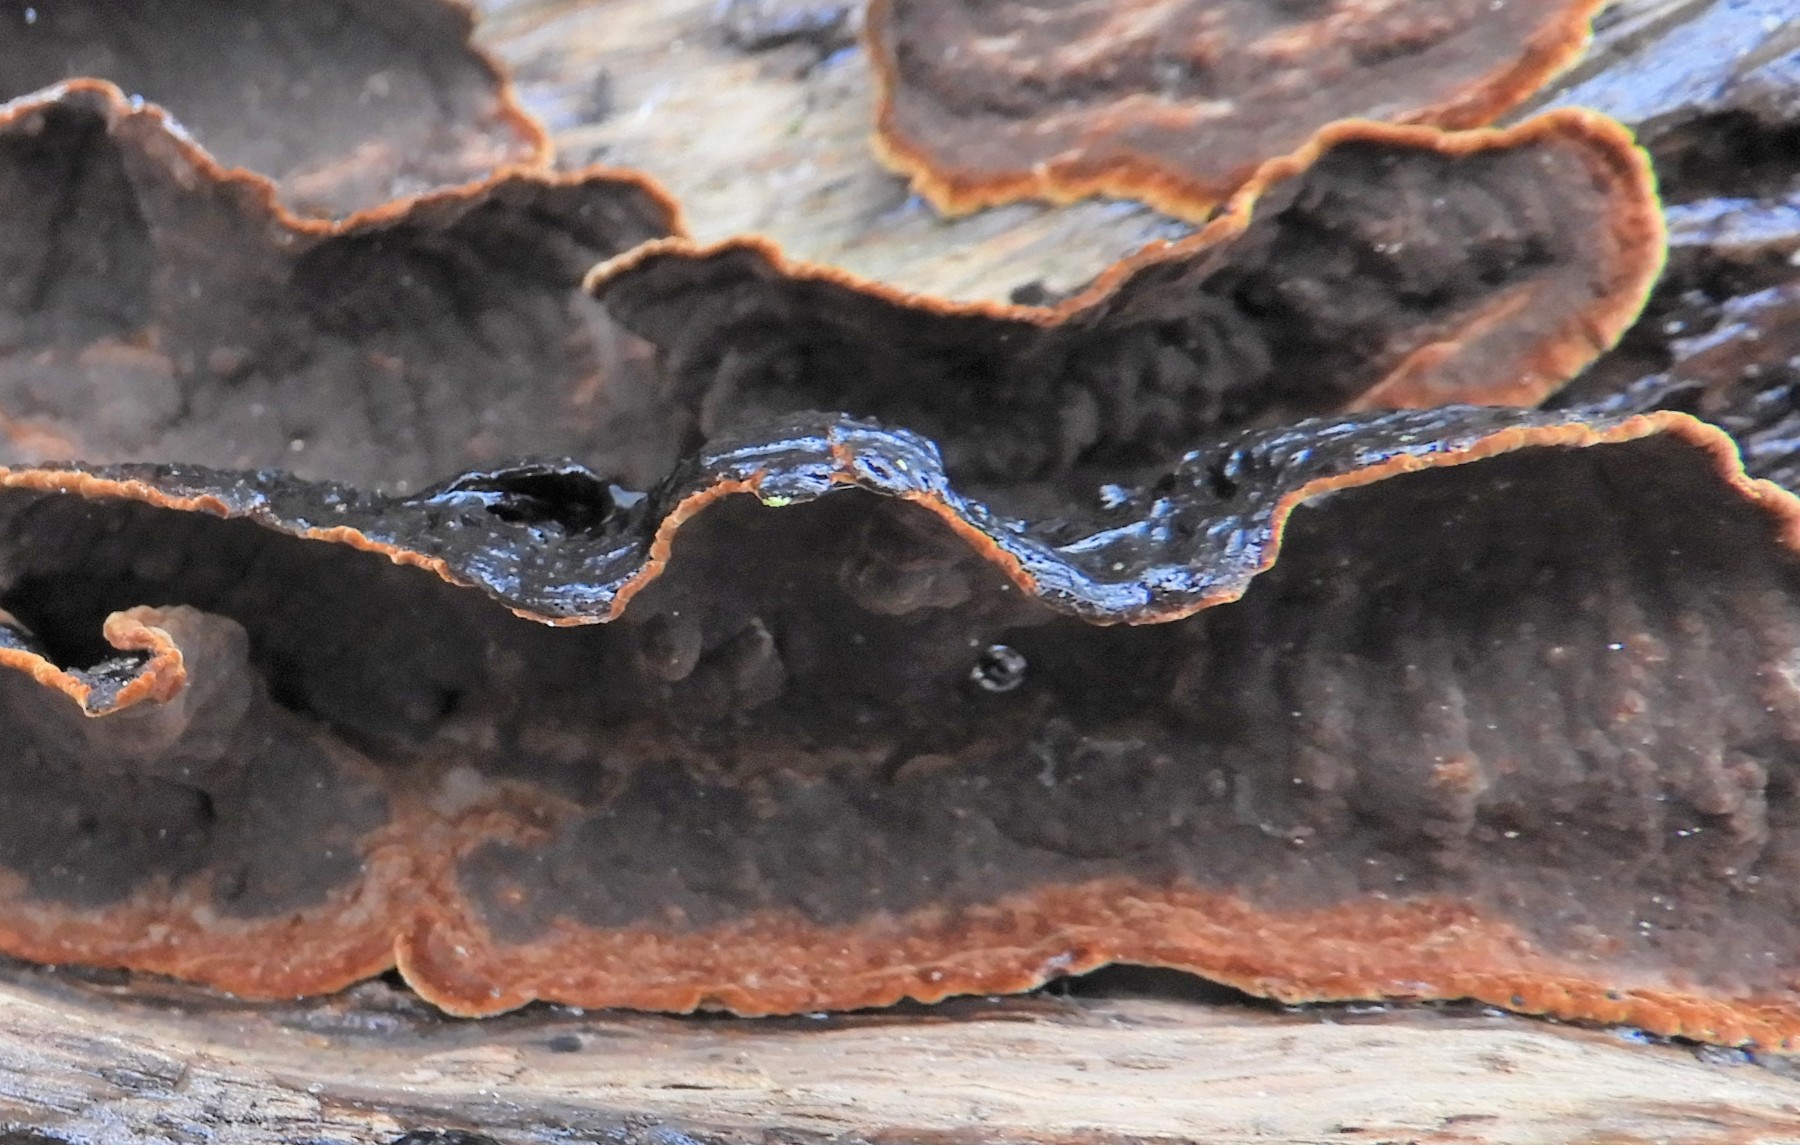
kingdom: Fungi
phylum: Basidiomycota
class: Agaricomycetes
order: Hymenochaetales
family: Hymenochaetaceae
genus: Hymenochaete
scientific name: Hymenochaete rubiginosa
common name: stiv ruslædersvamp
